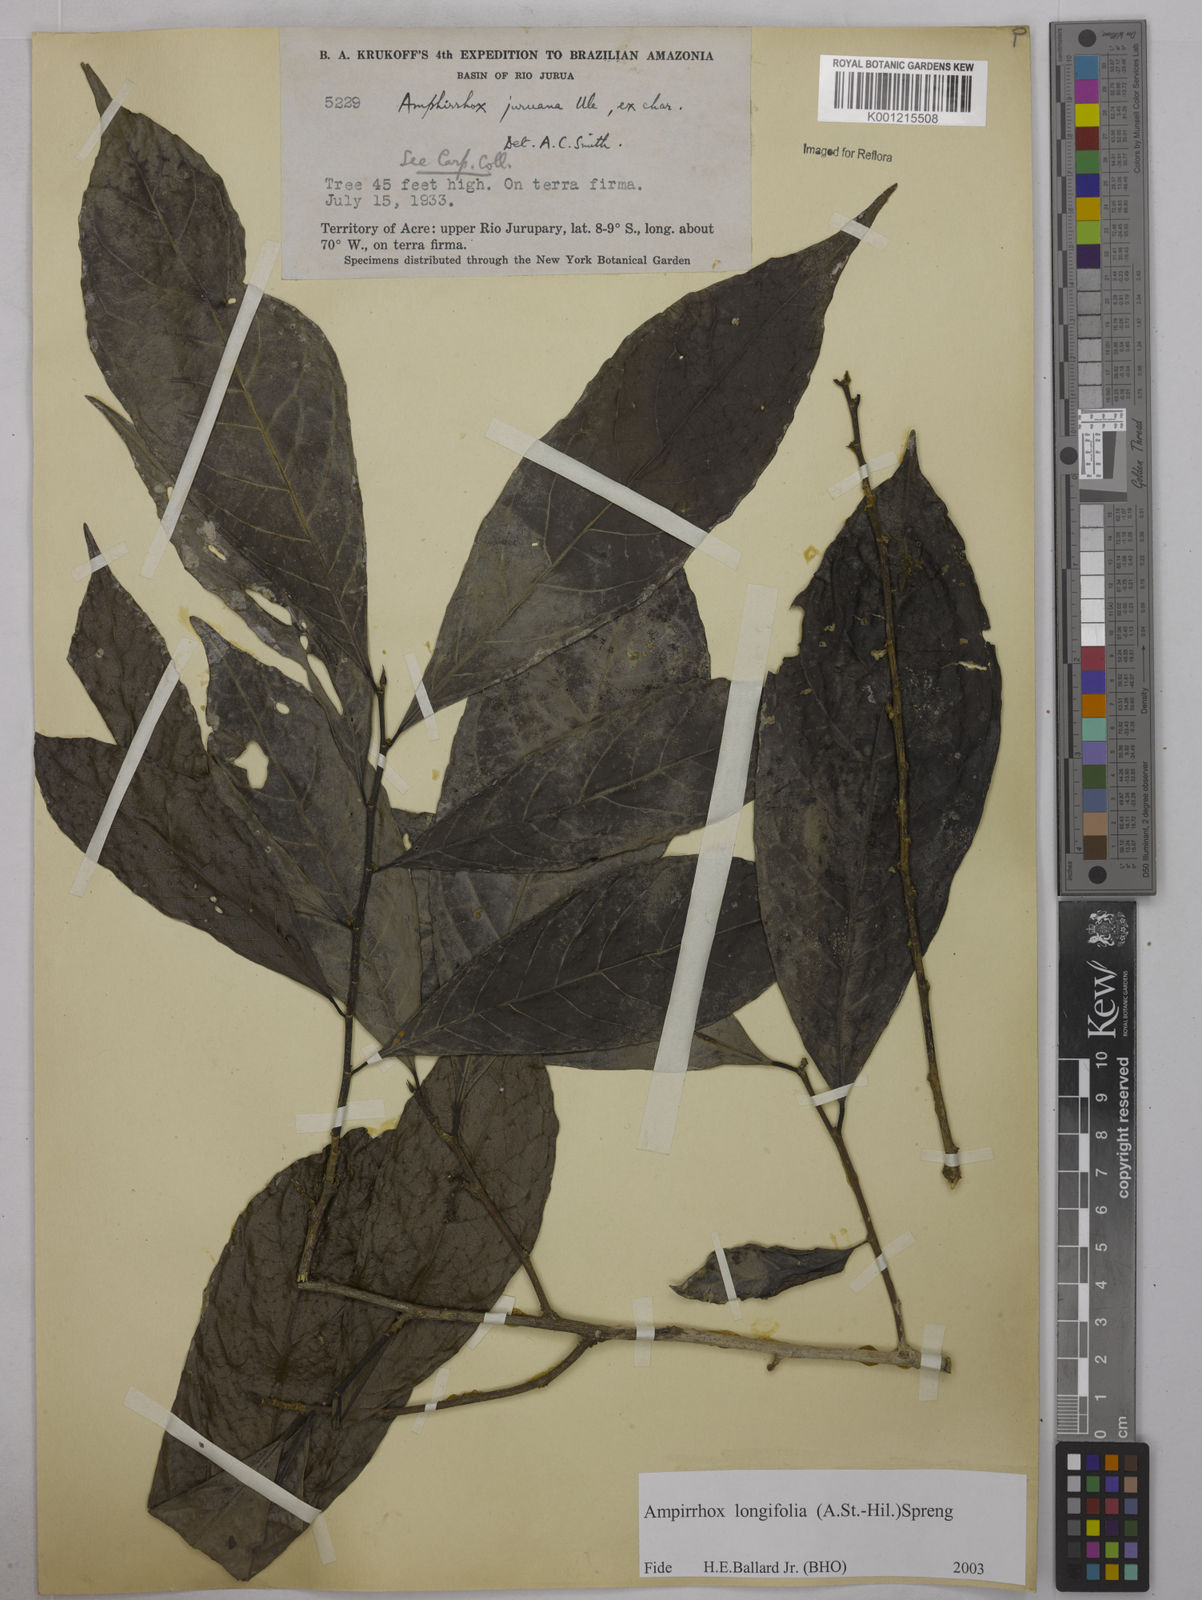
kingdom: Plantae
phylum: Tracheophyta
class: Magnoliopsida
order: Malpighiales
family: Violaceae
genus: Amphirrhox
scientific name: Amphirrhox longifolia
